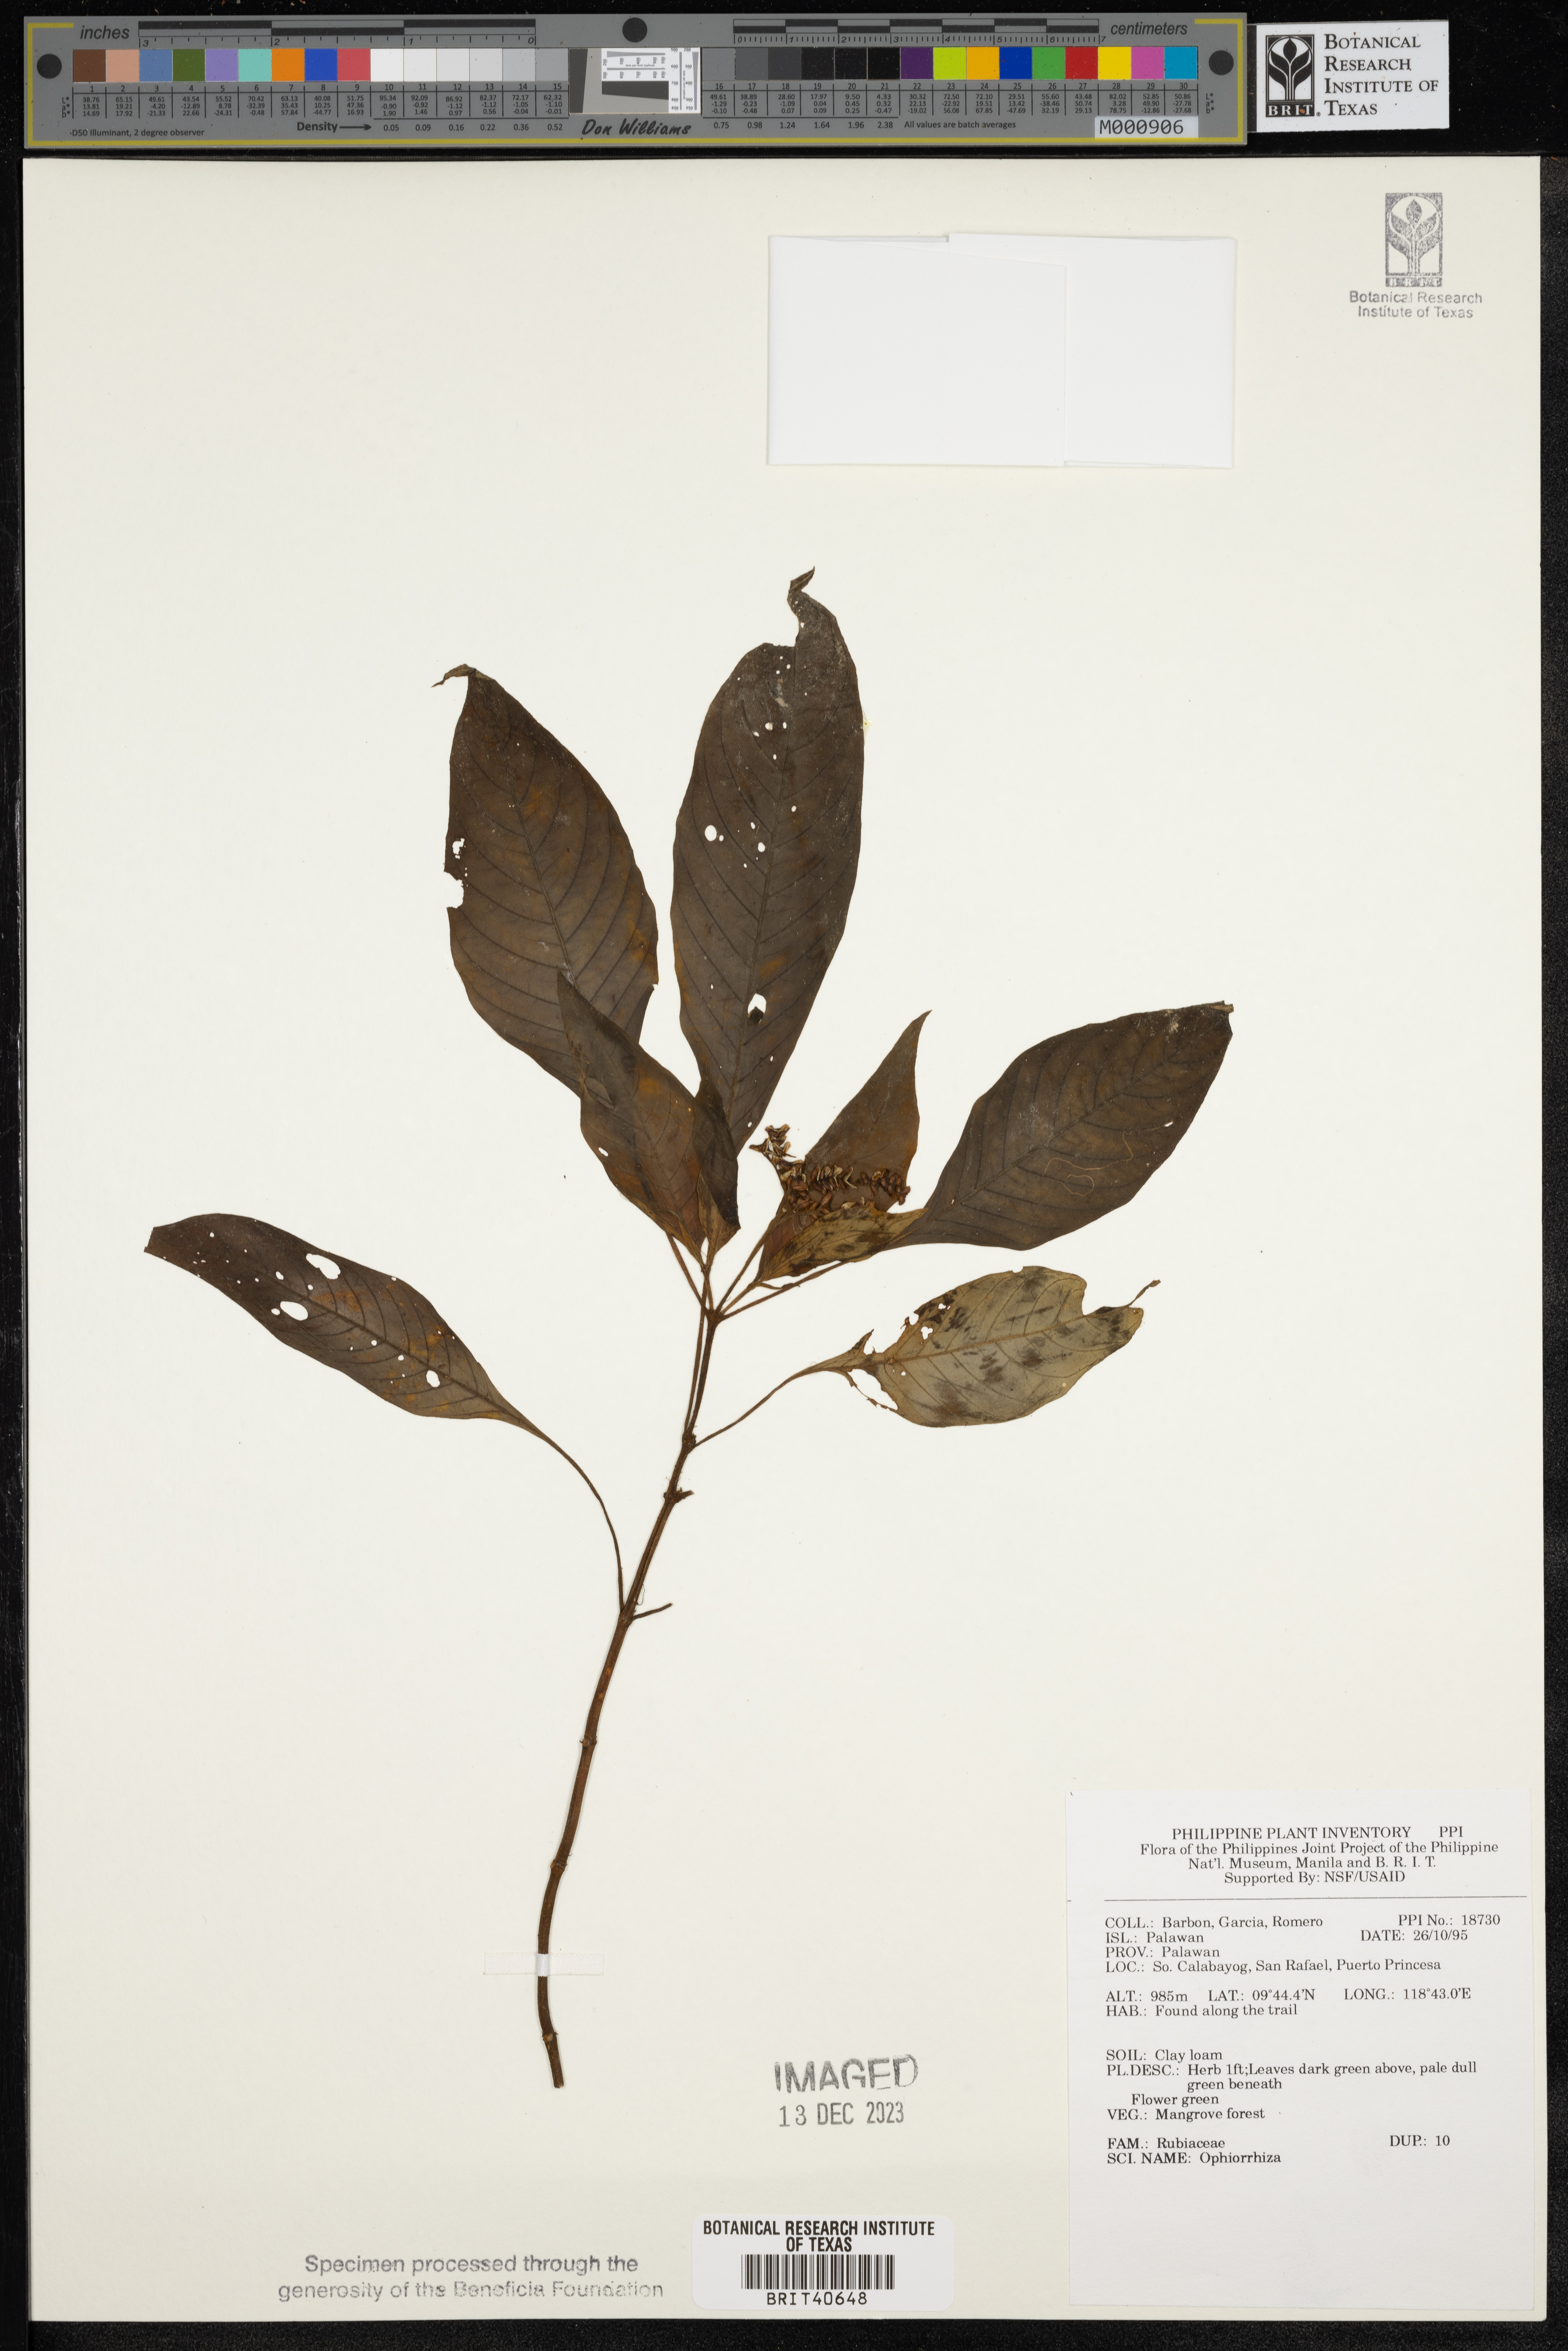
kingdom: Plantae
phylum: Tracheophyta
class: Magnoliopsida
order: Gentianales
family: Rubiaceae
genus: Ophiorrhiza
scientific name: Ophiorrhiza
